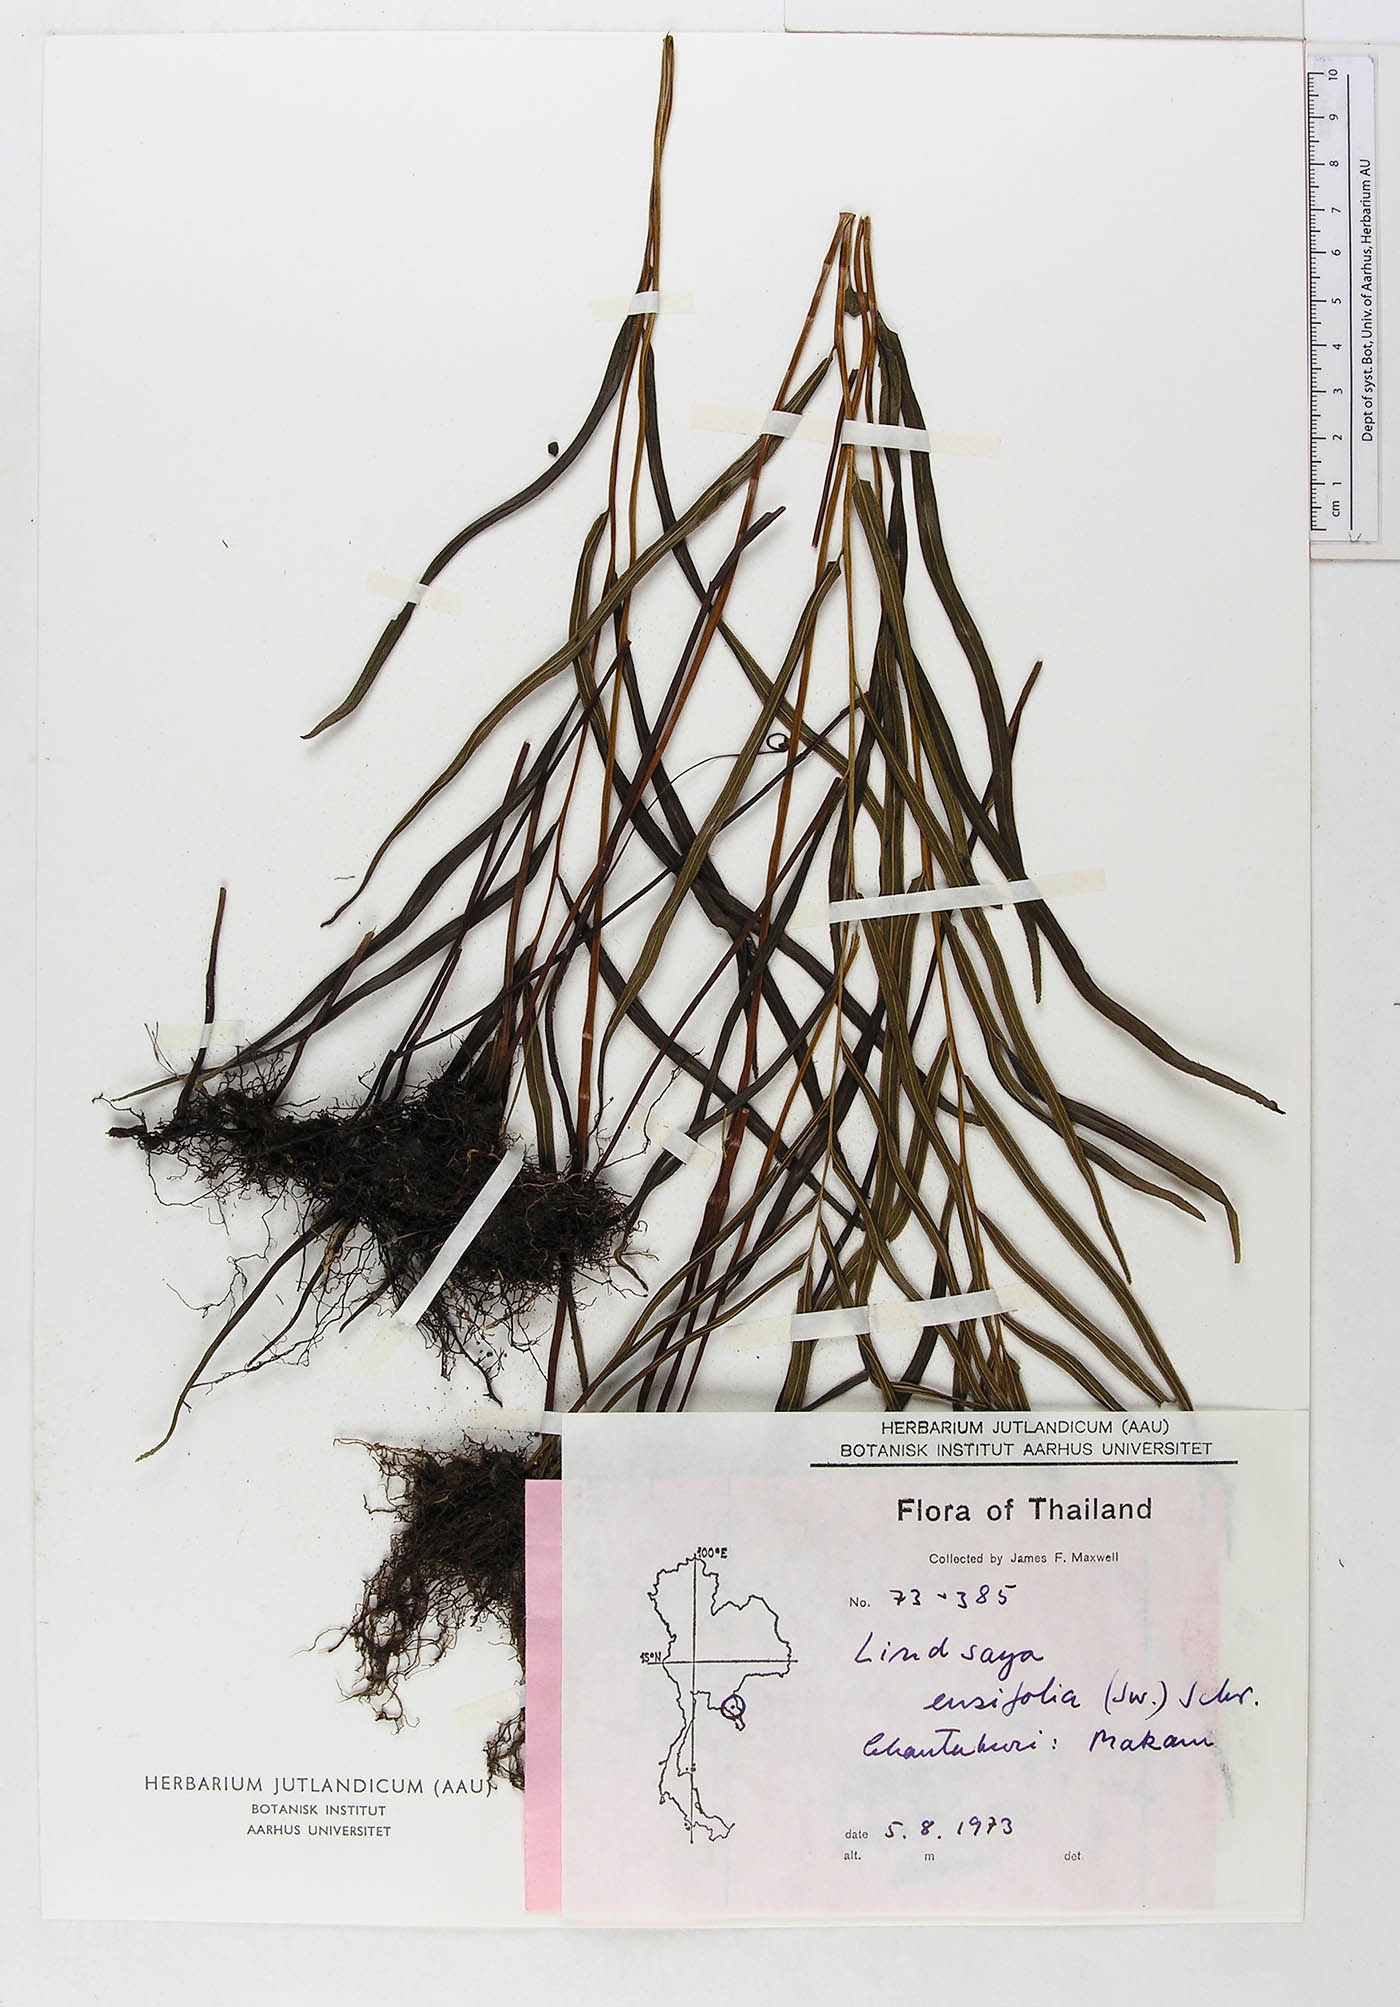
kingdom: Plantae
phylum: Tracheophyta
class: Polypodiopsida
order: Polypodiales
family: Lindsaeaceae
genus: Lindsaea
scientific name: Lindsaea ensifolia
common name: Graceful necklace fern
